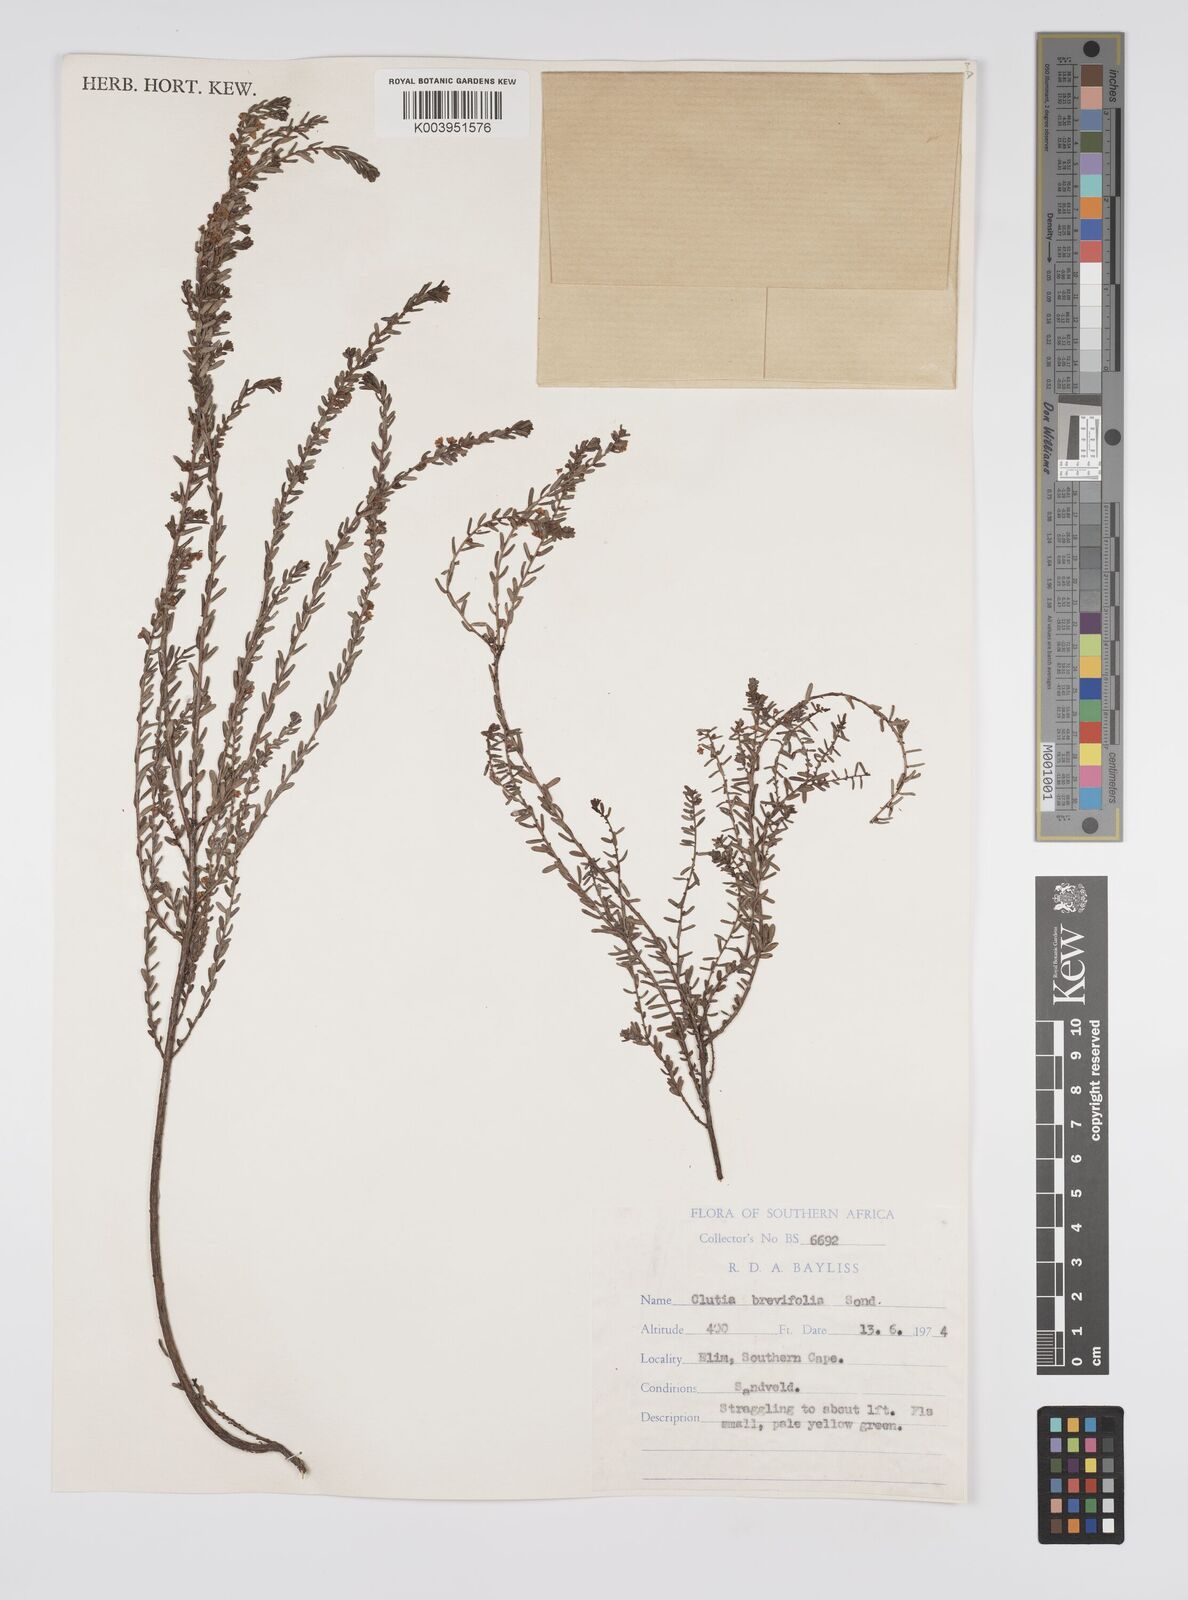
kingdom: Plantae
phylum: Tracheophyta
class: Magnoliopsida
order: Malpighiales
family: Peraceae
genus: Clutia
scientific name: Clutia brevifolia
